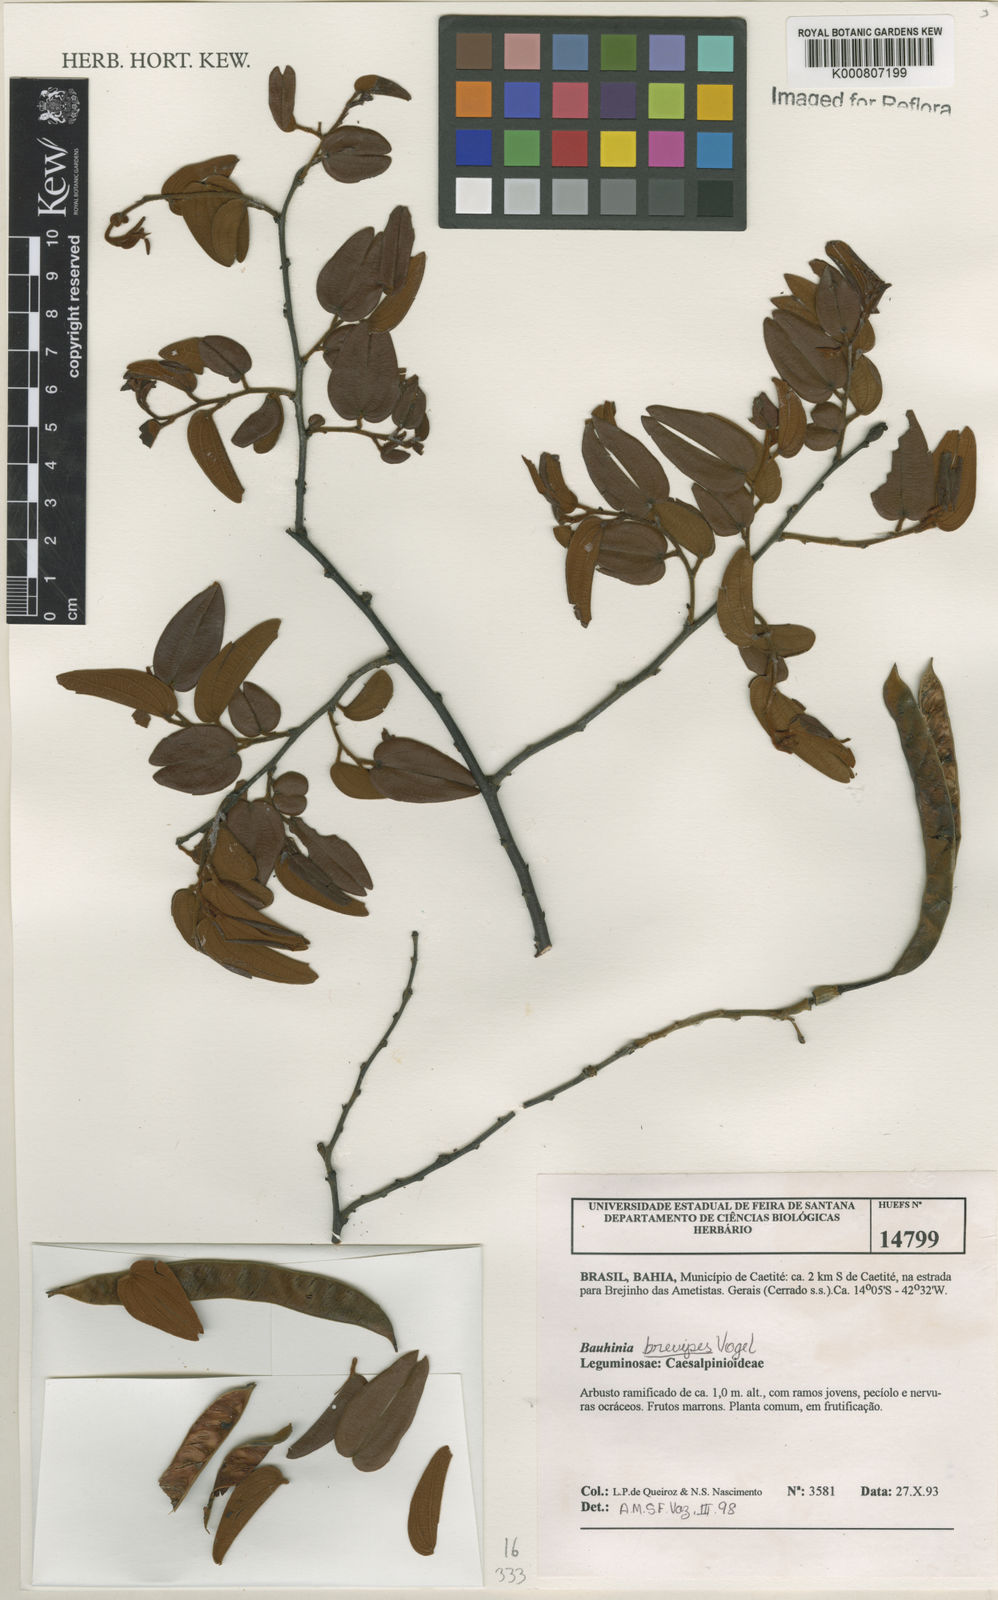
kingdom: Plantae
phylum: Tracheophyta
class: Magnoliopsida
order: Fabales
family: Fabaceae
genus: Bauhinia
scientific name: Bauhinia brevipes
